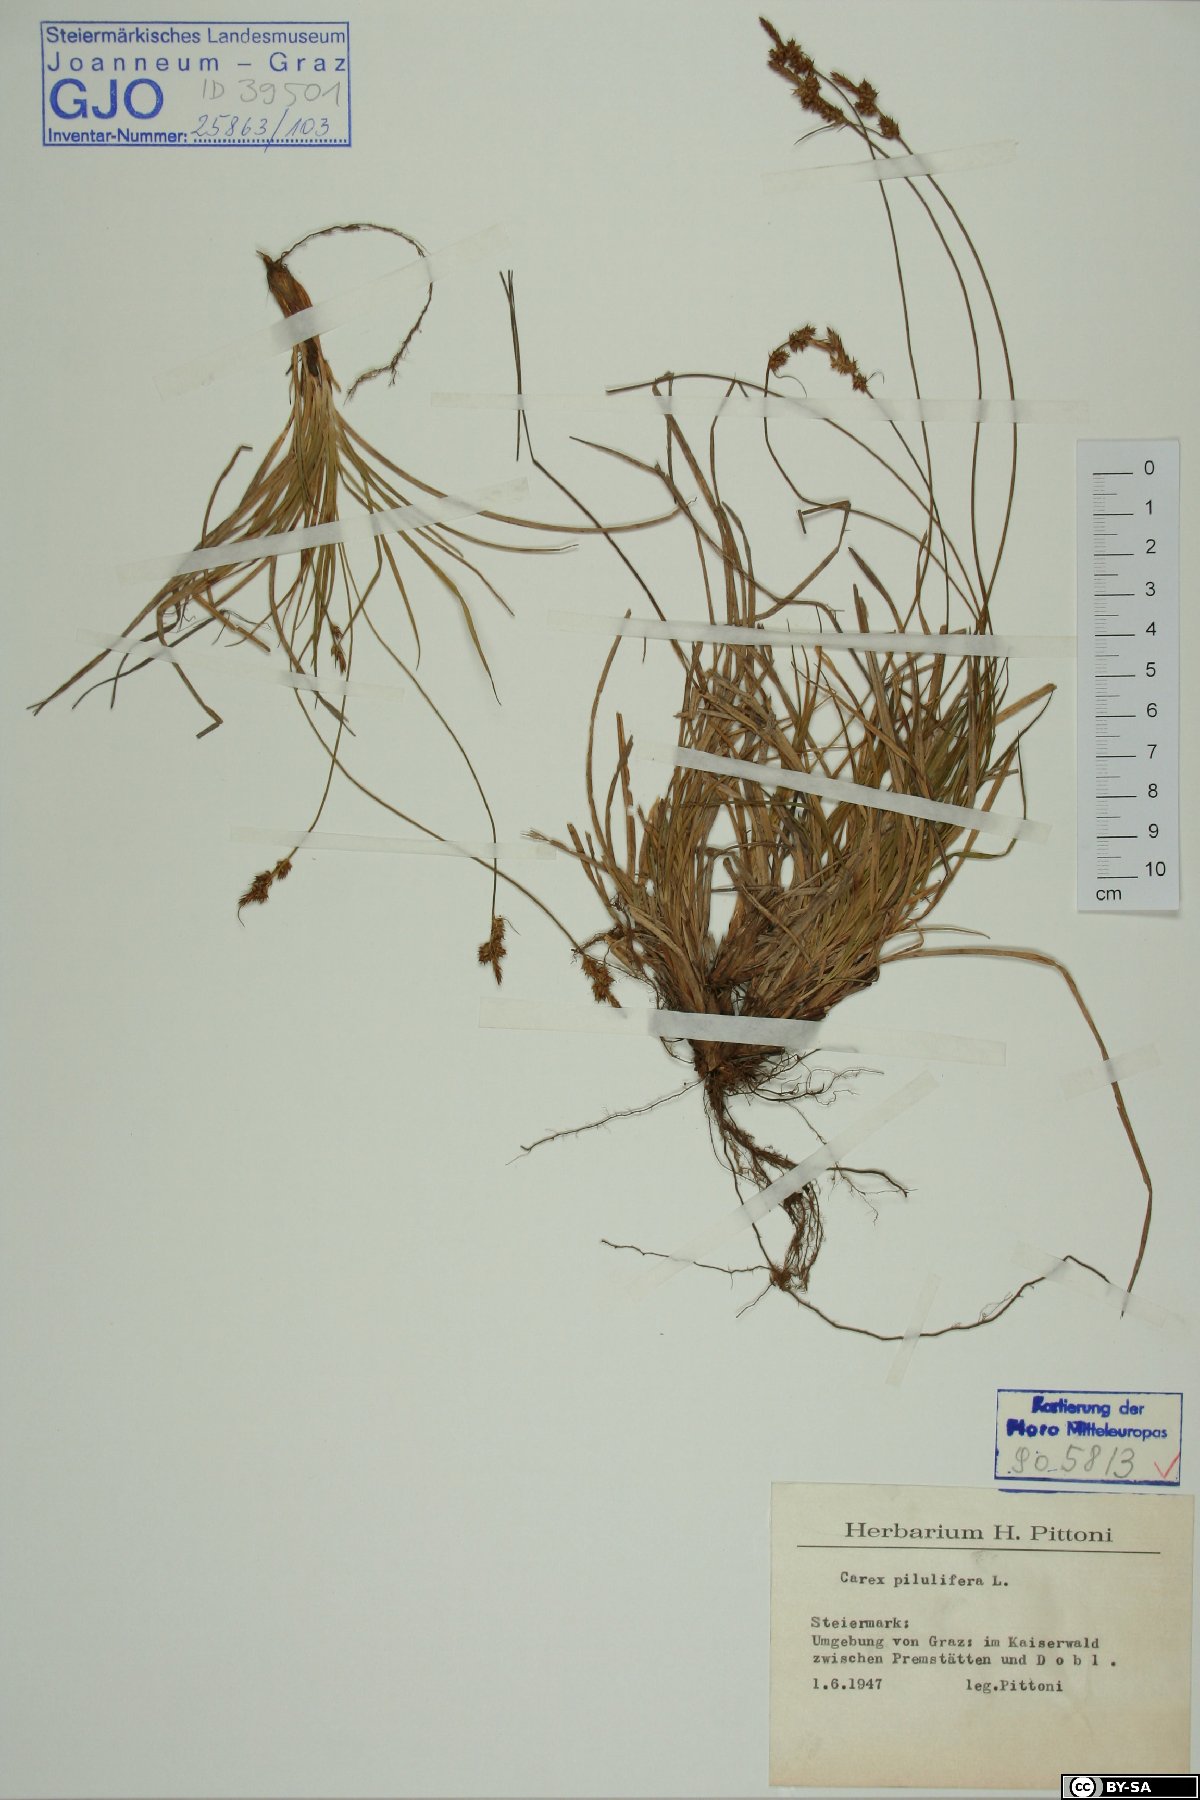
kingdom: Plantae
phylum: Tracheophyta
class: Liliopsida
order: Poales
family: Cyperaceae
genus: Carex
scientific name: Carex pilulifera
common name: Pill sedge
